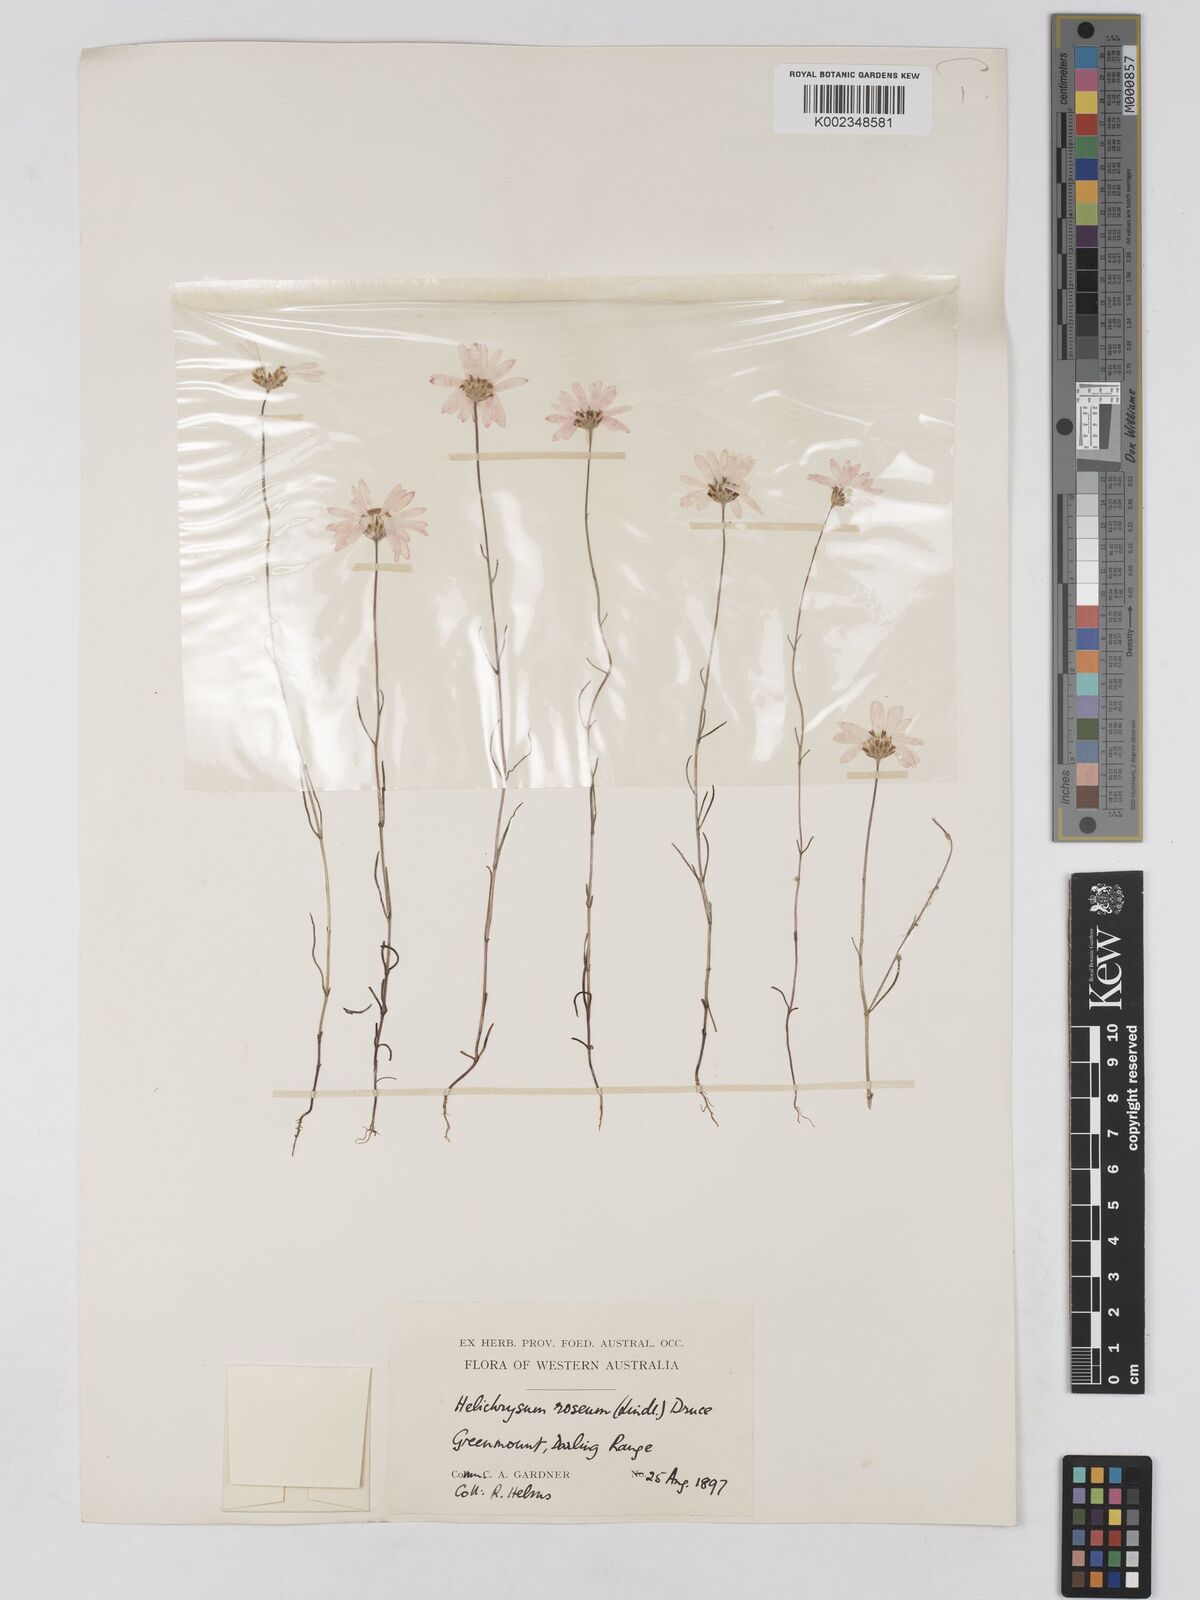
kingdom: Plantae
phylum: Tracheophyta
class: Magnoliopsida
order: Asterales
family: Asteraceae
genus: Lawrencella
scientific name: Lawrencella rosea
